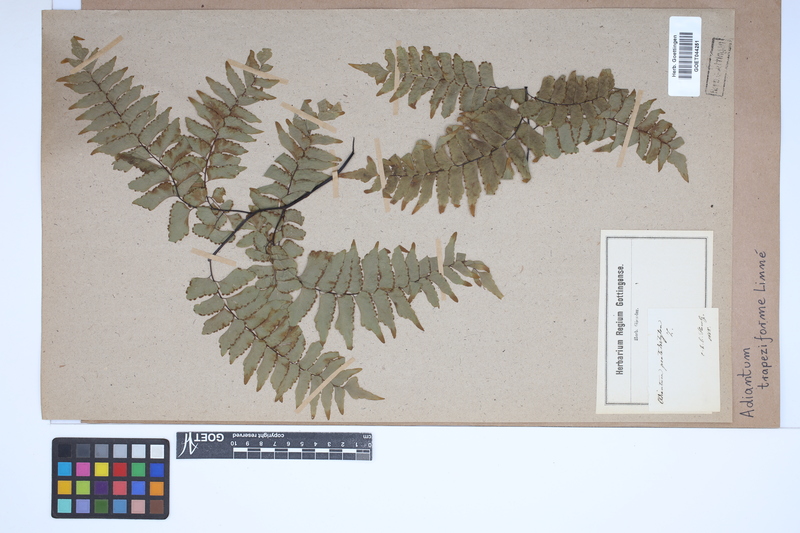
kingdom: Plantae
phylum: Tracheophyta
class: Polypodiopsida
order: Polypodiales
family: Pteridaceae
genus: Adiantum
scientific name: Adiantum trapeziforme
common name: Diamond maidenhair
